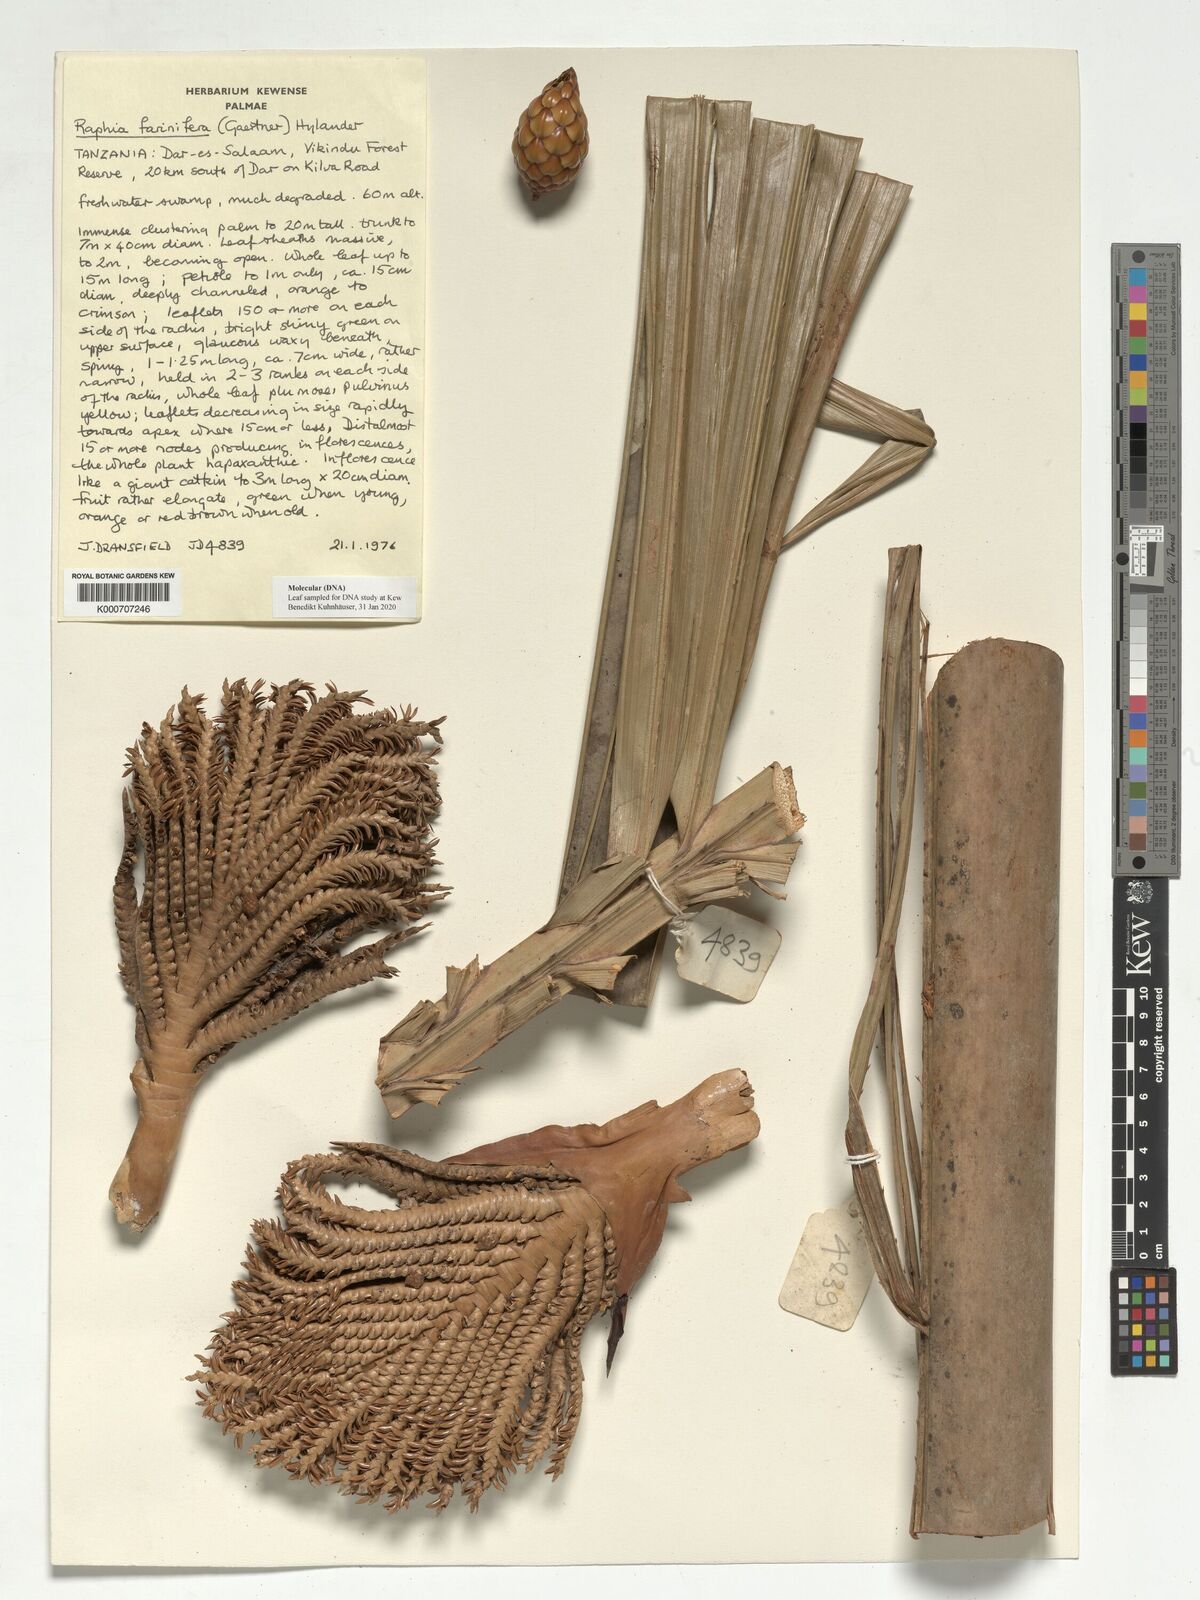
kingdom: Plantae
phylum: Tracheophyta
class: Liliopsida
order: Arecales
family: Arecaceae
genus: Raphia
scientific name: Raphia farinifera
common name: Raphia palm
